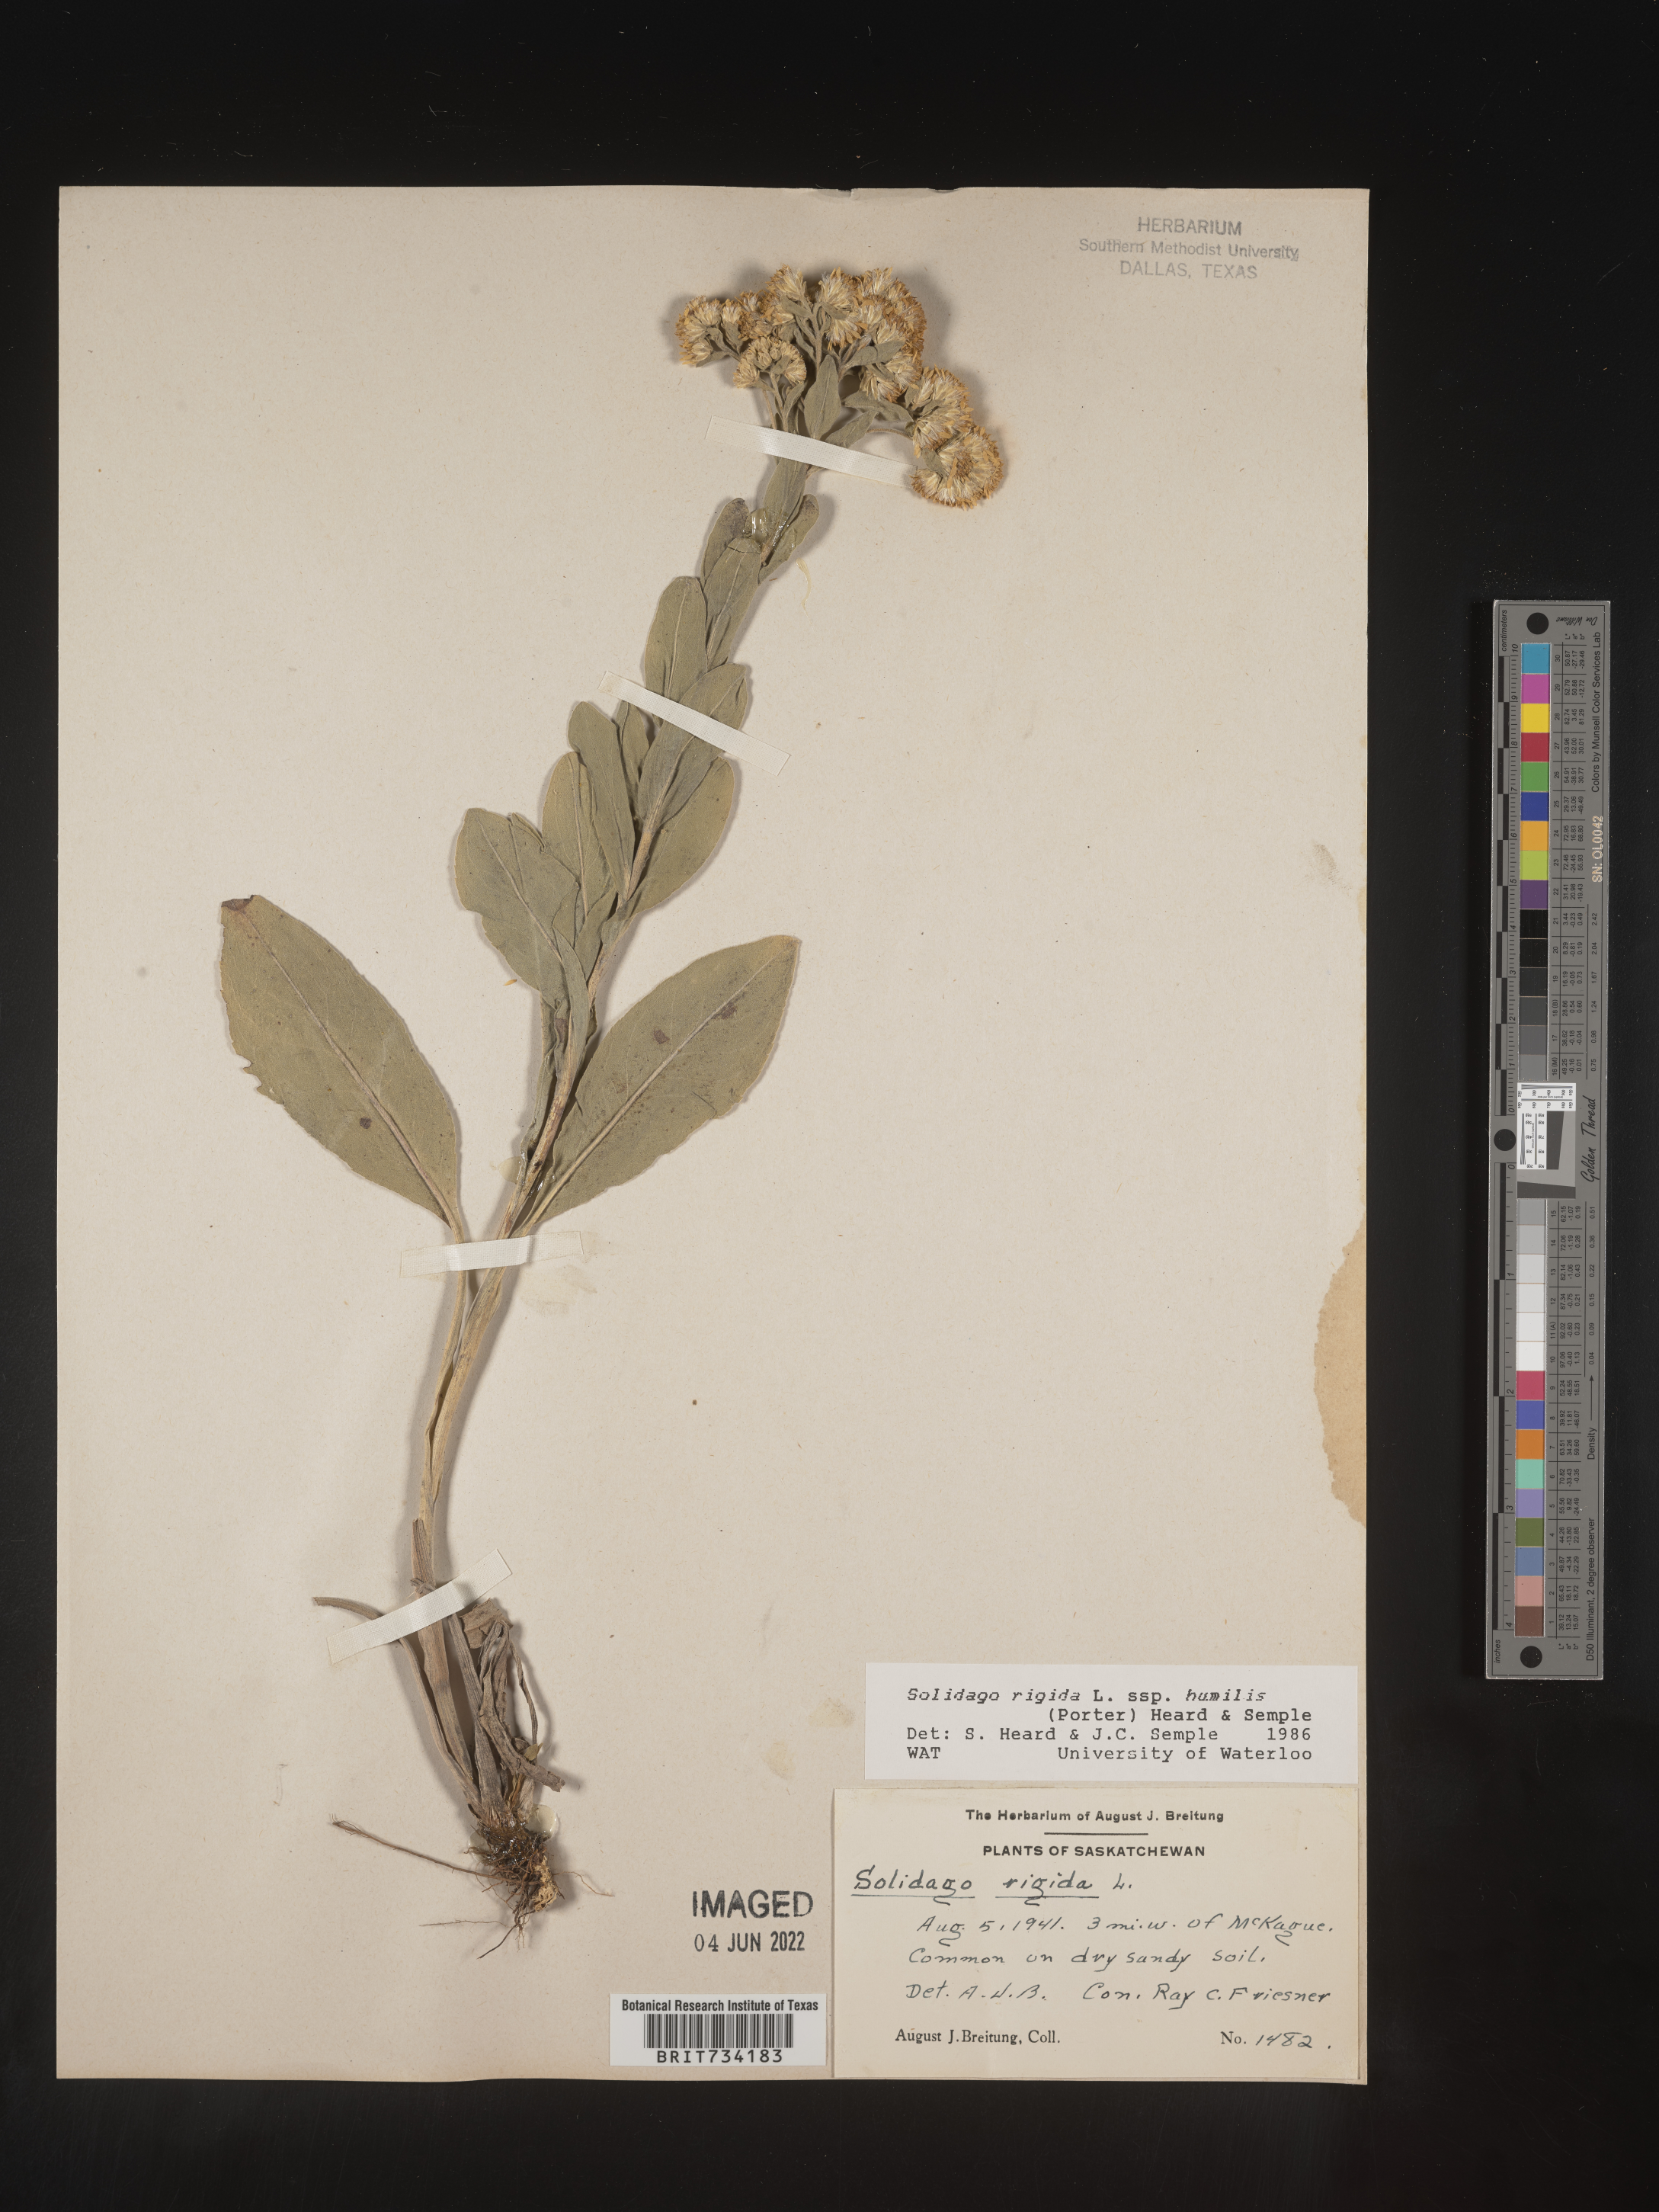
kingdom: Plantae
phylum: Tracheophyta
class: Magnoliopsida
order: Asterales
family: Asteraceae
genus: Solidago
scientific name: Solidago rigida
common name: Rigid goldenrod
